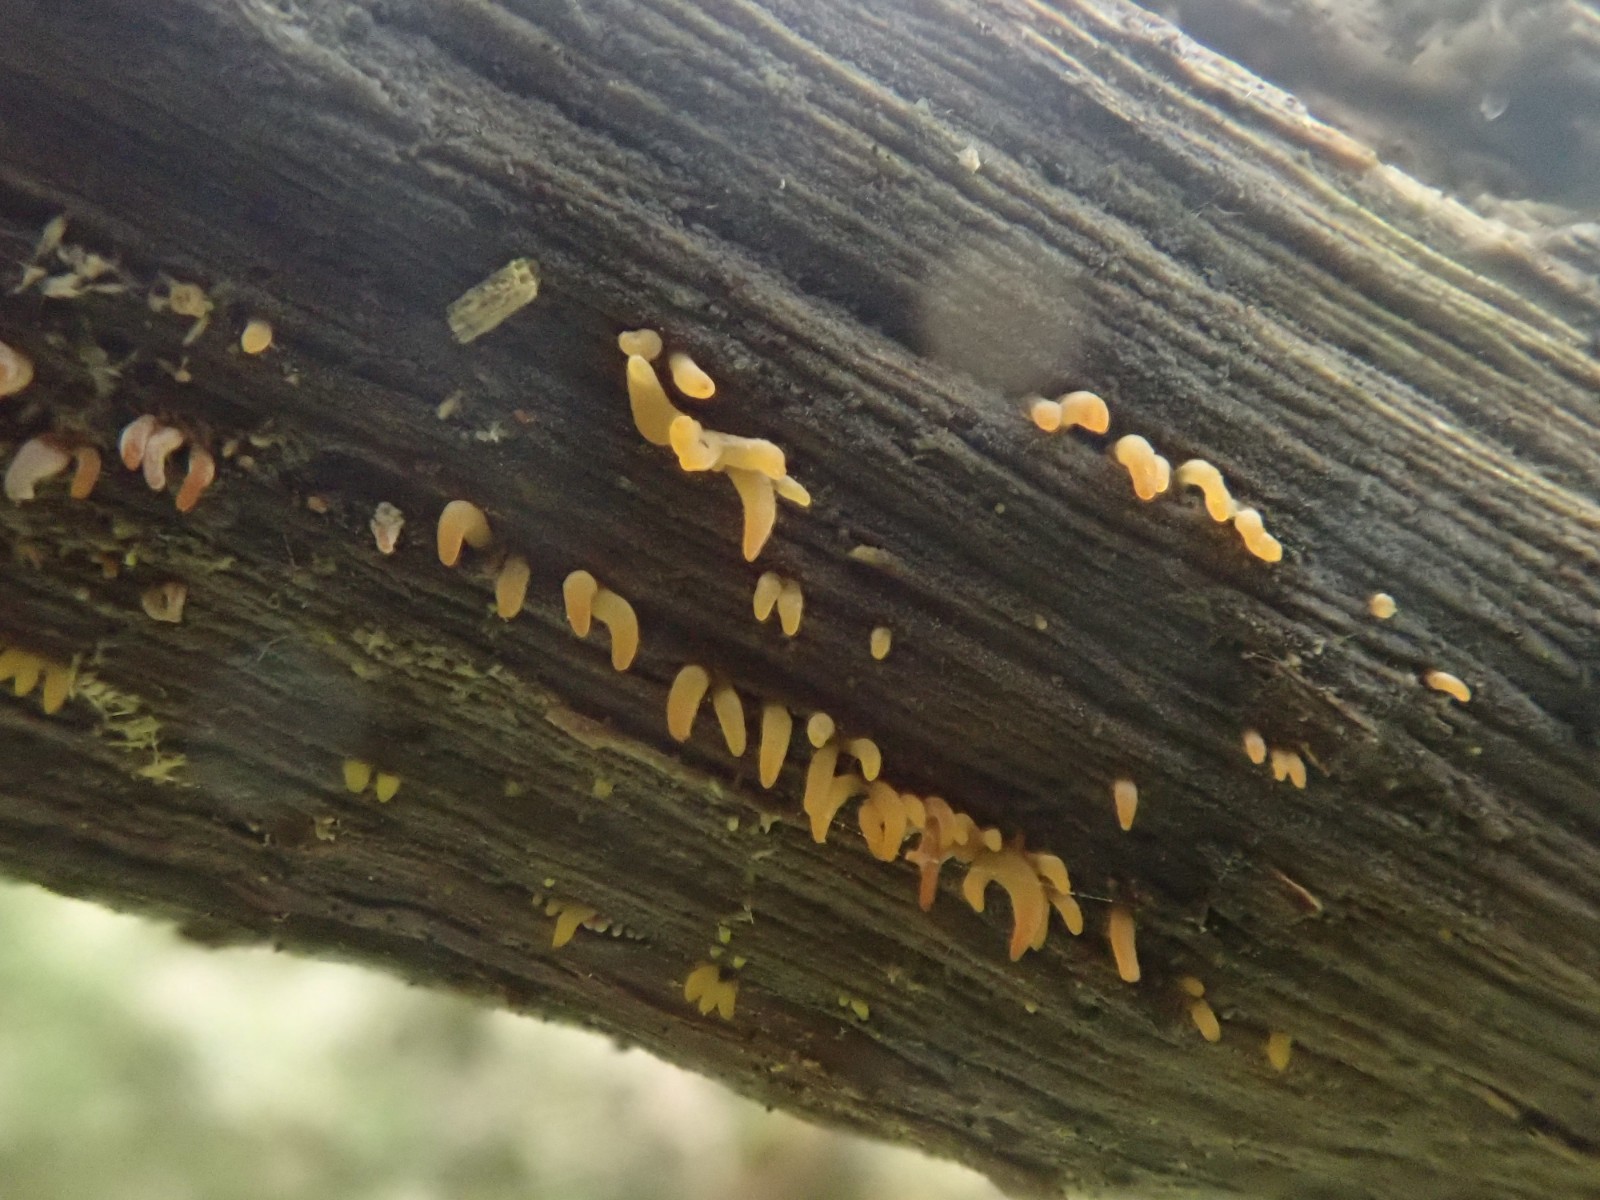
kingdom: Fungi
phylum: Basidiomycota
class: Dacrymycetes
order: Dacrymycetales
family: Dacrymycetaceae
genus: Calocera
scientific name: Calocera cornea
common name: liden guldgaffel
